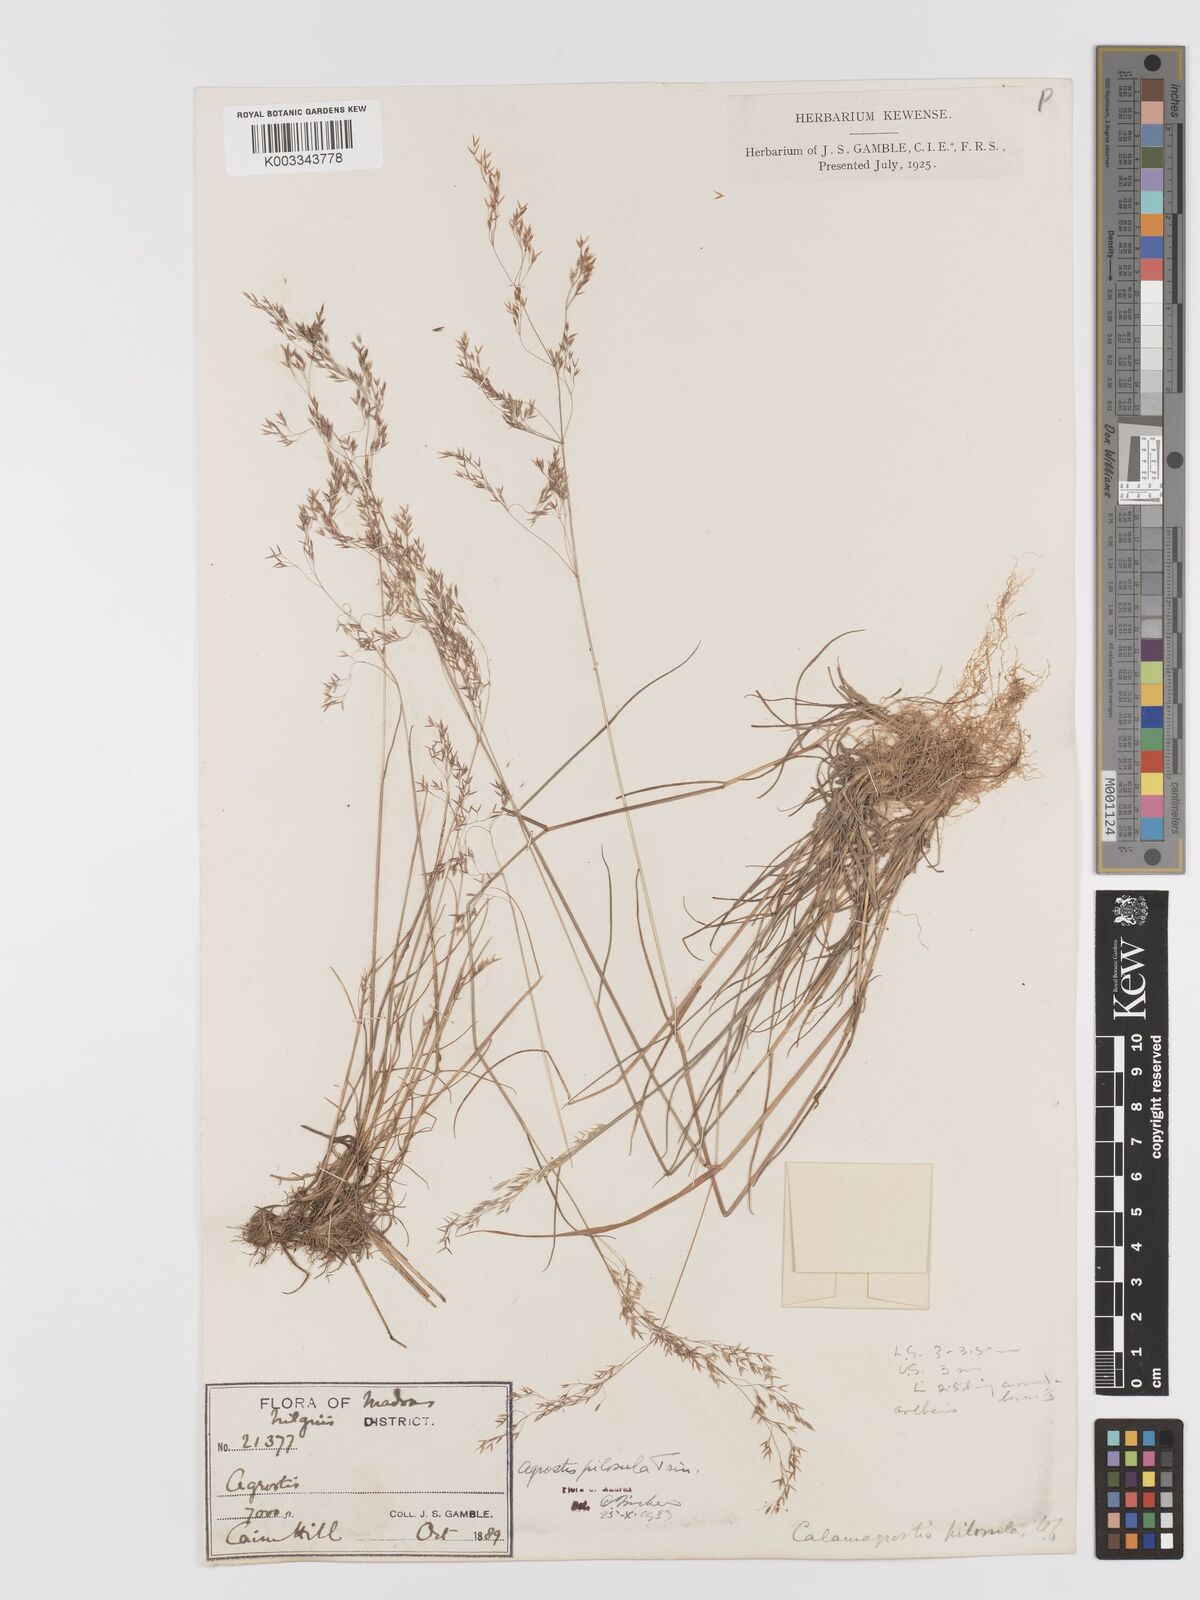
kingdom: Plantae
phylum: Tracheophyta
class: Liliopsida
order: Poales
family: Poaceae
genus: Agrostis
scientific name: Agrostis pilosula
